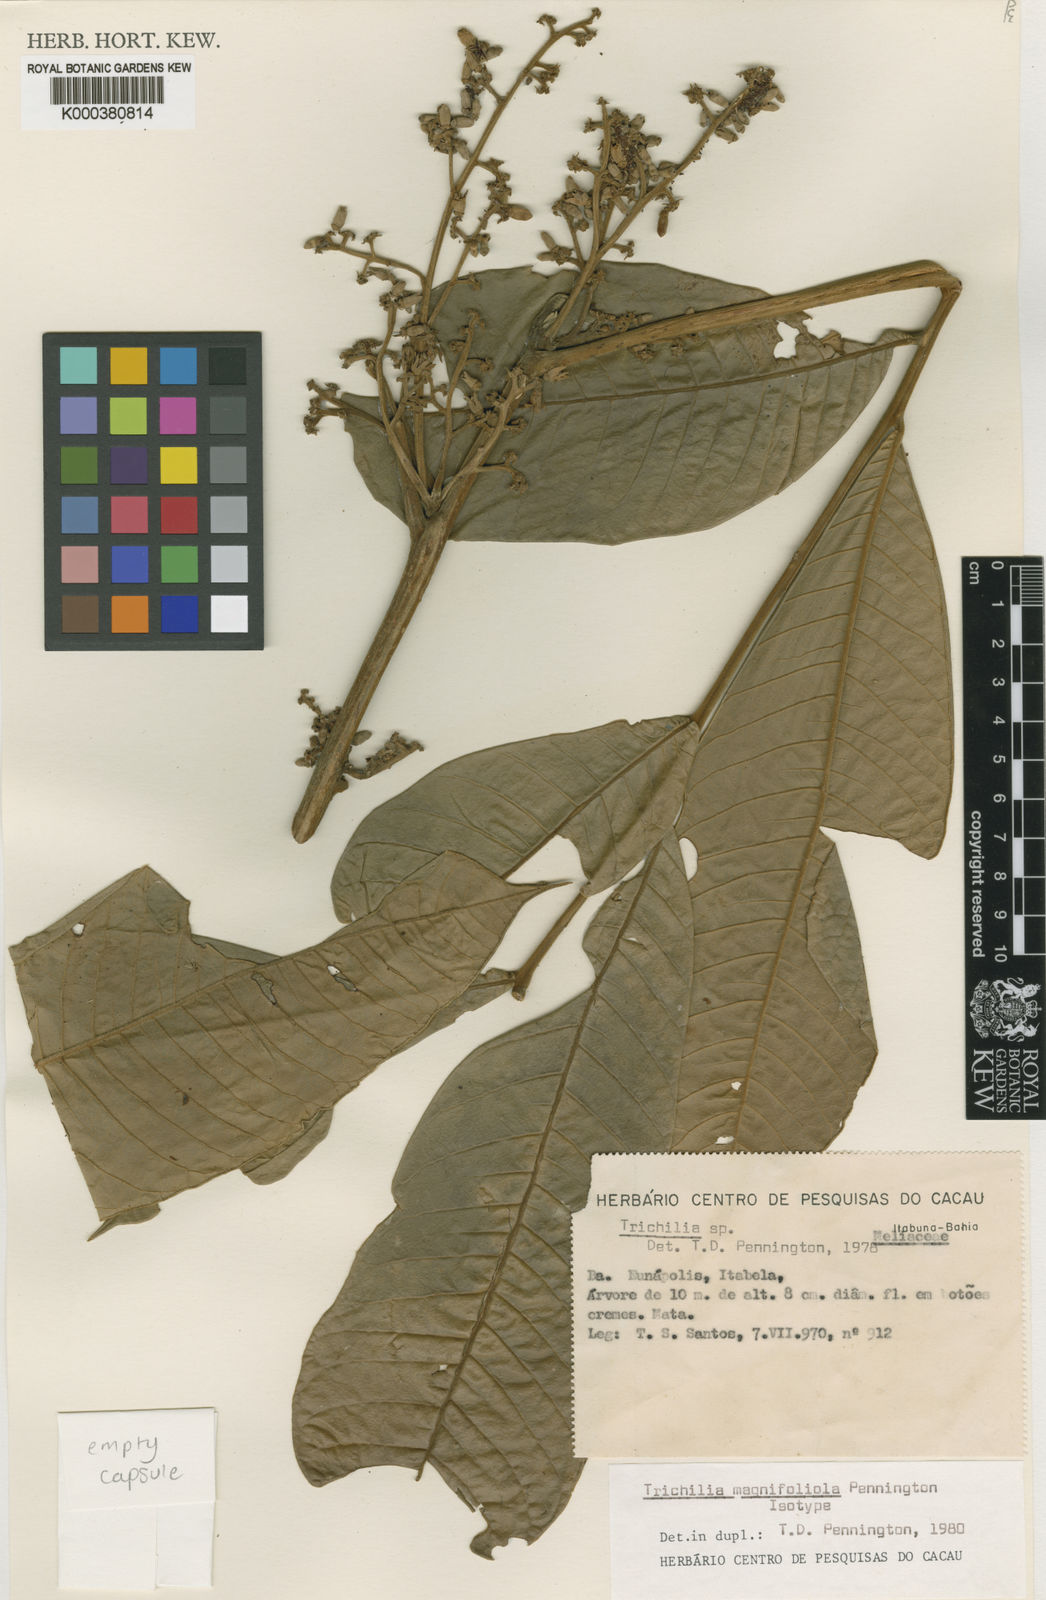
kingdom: Plantae
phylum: Tracheophyta
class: Magnoliopsida
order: Sapindales
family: Meliaceae
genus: Trichilia
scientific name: Trichilia magnifoliola
